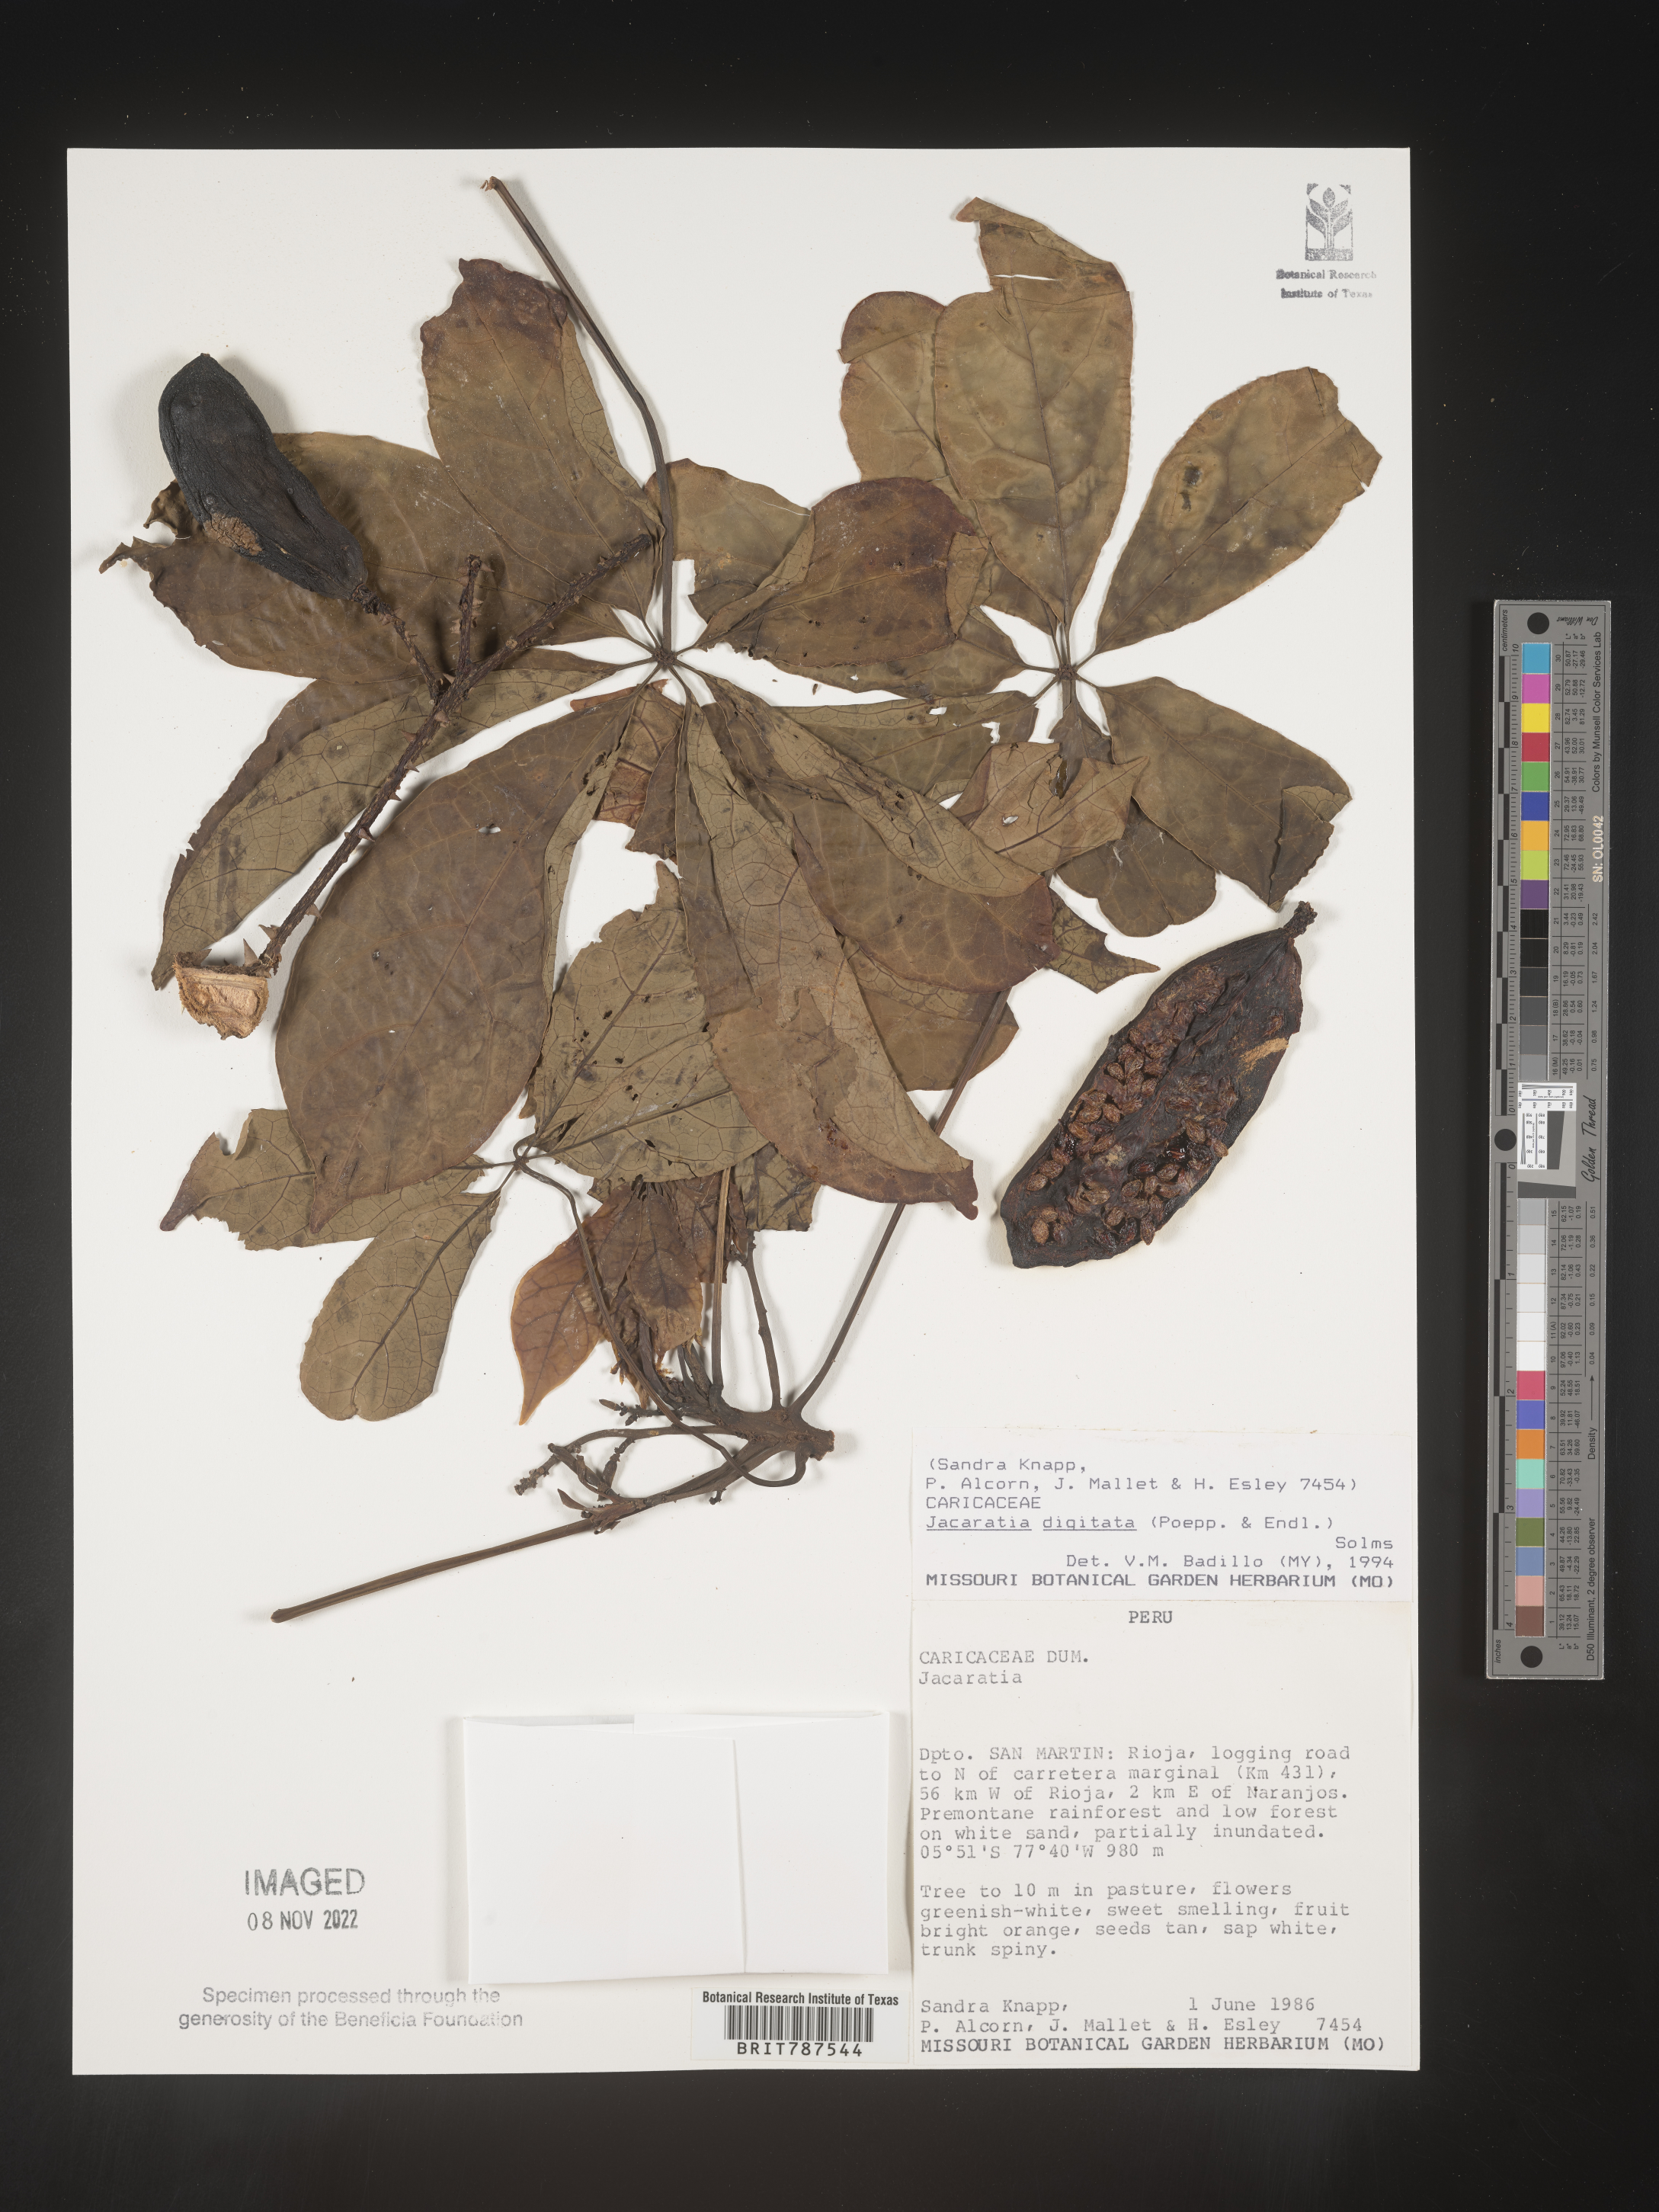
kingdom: Plantae
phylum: Tracheophyta
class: Magnoliopsida
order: Brassicales
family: Caricaceae
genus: Jacaratia
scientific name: Jacaratia
